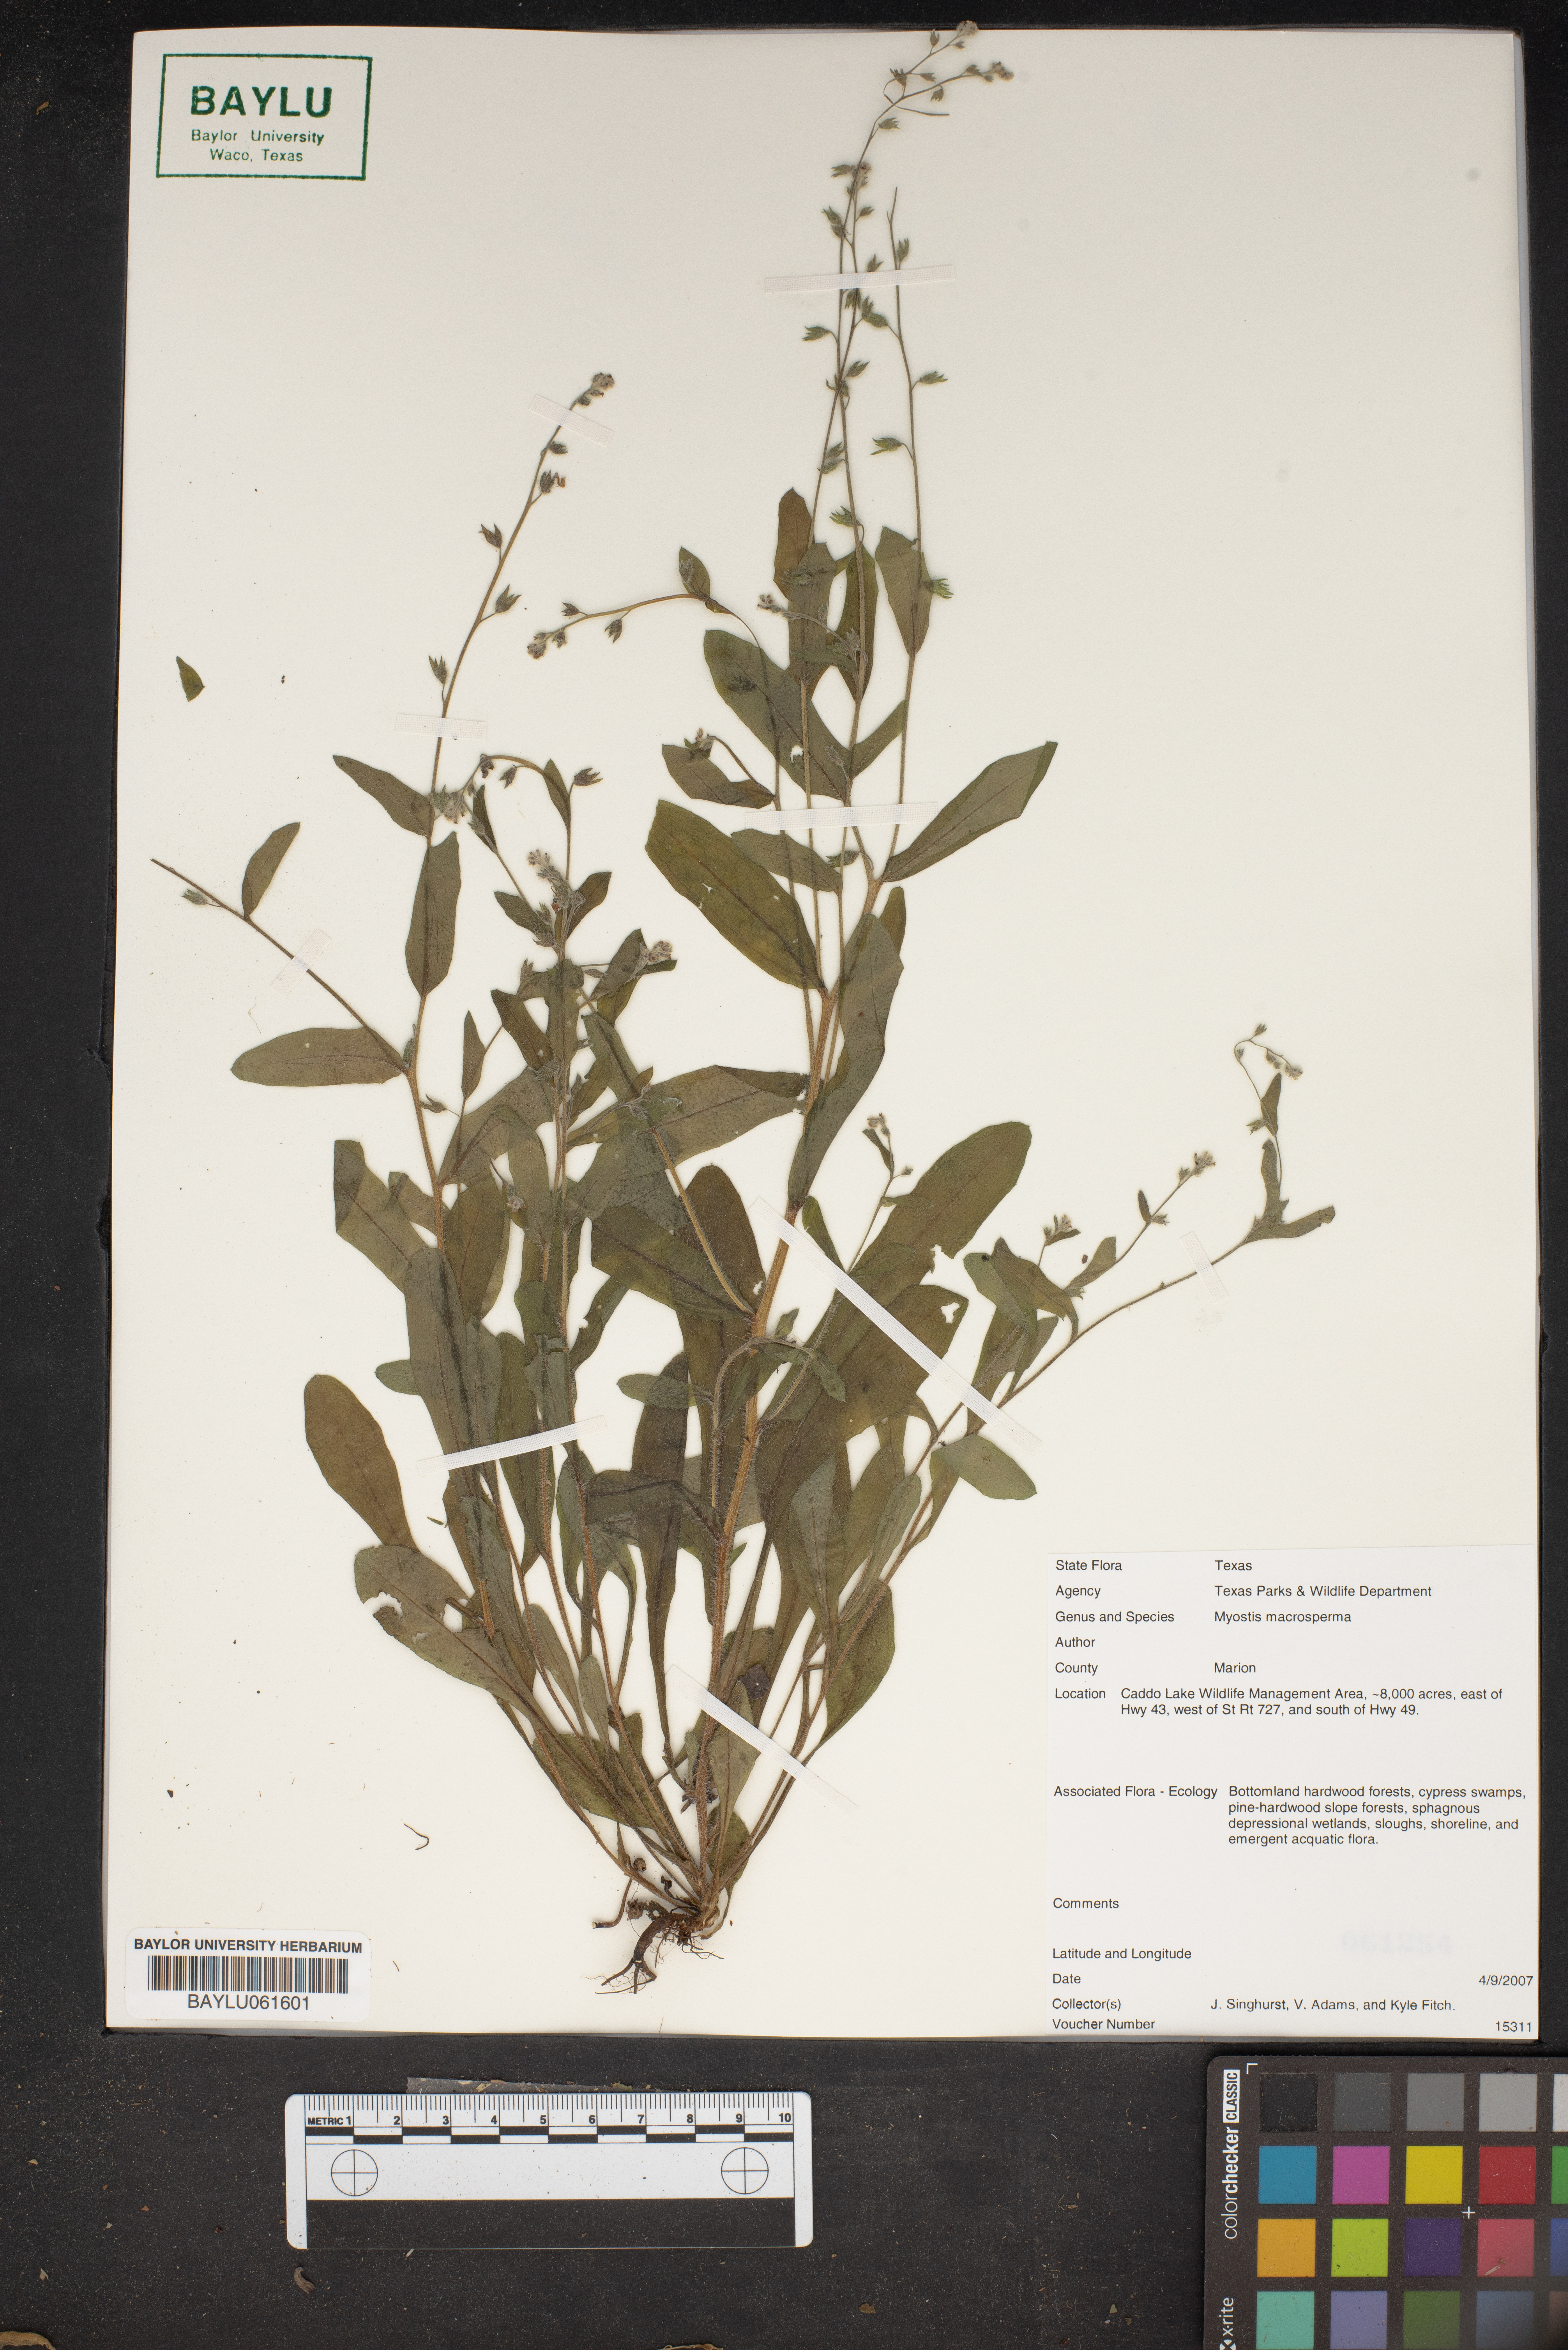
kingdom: Plantae
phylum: Tracheophyta
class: Magnoliopsida
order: Boraginales
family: Boraginaceae
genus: Myosotis
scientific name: Myosotis macrosperma
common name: Large-seed forget-me-not
